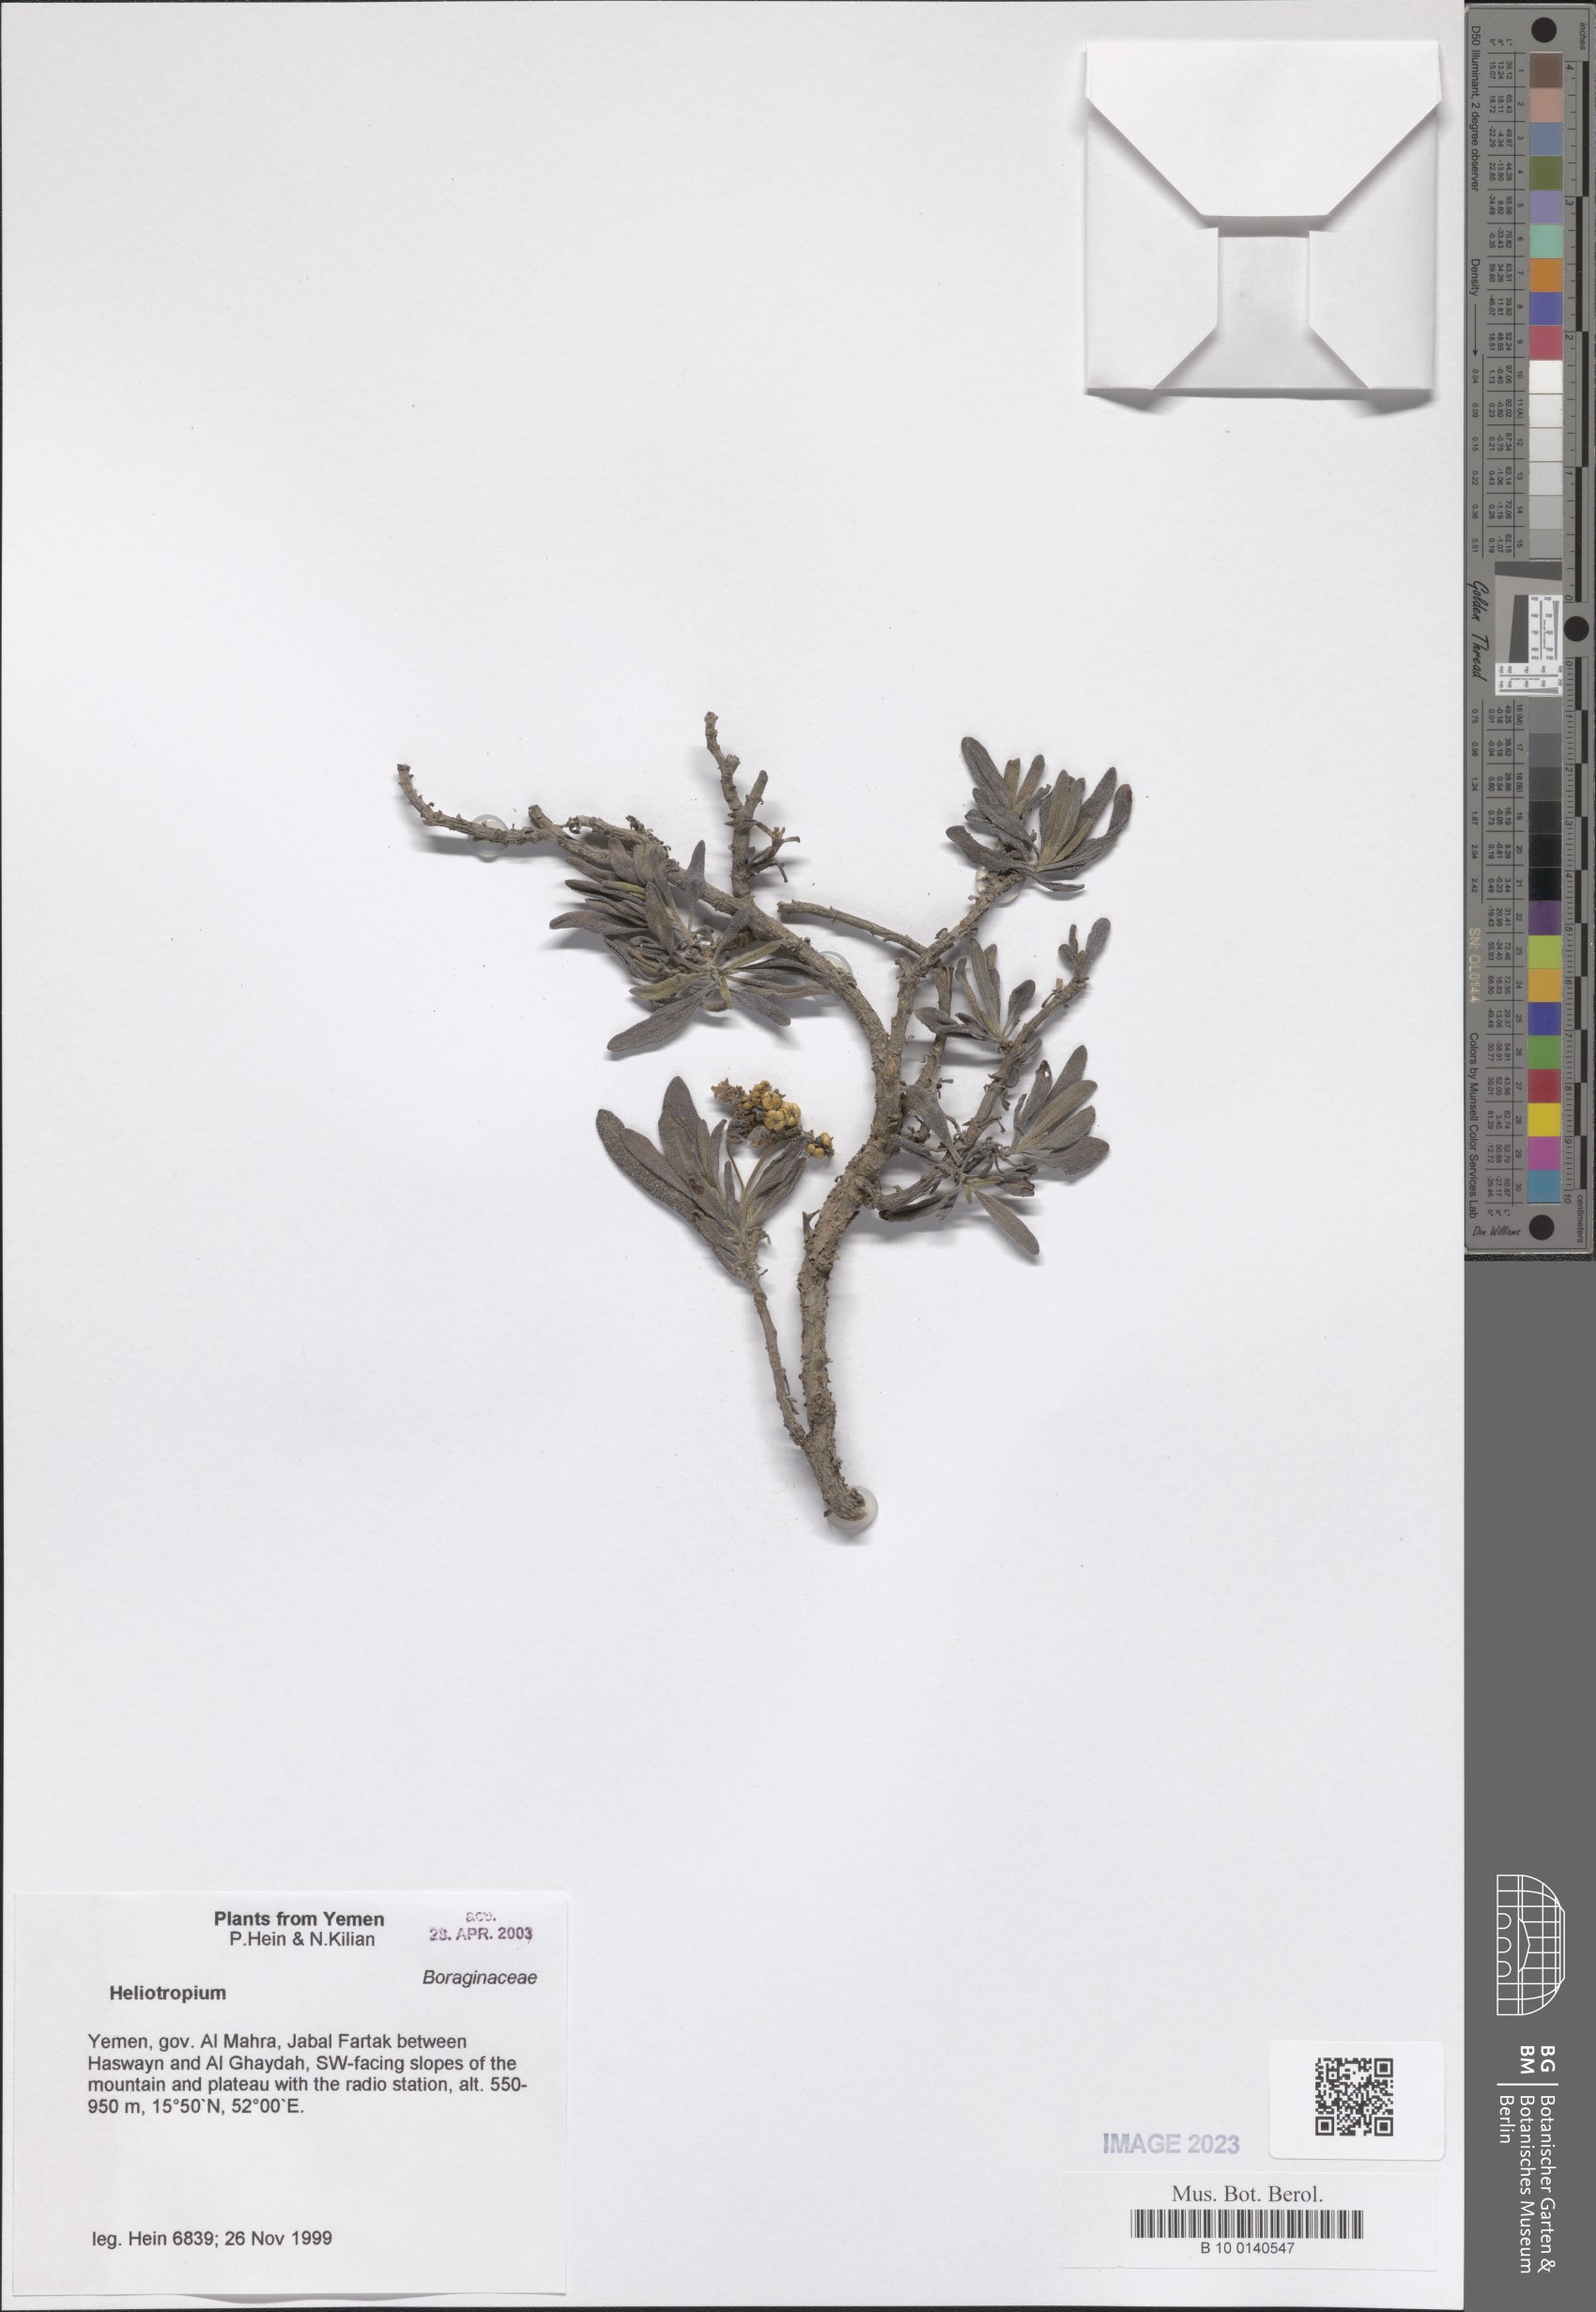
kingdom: Plantae
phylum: Tracheophyta
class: Magnoliopsida
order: Boraginales
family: Heliotropiaceae
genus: Heliotropium
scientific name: Heliotropium
